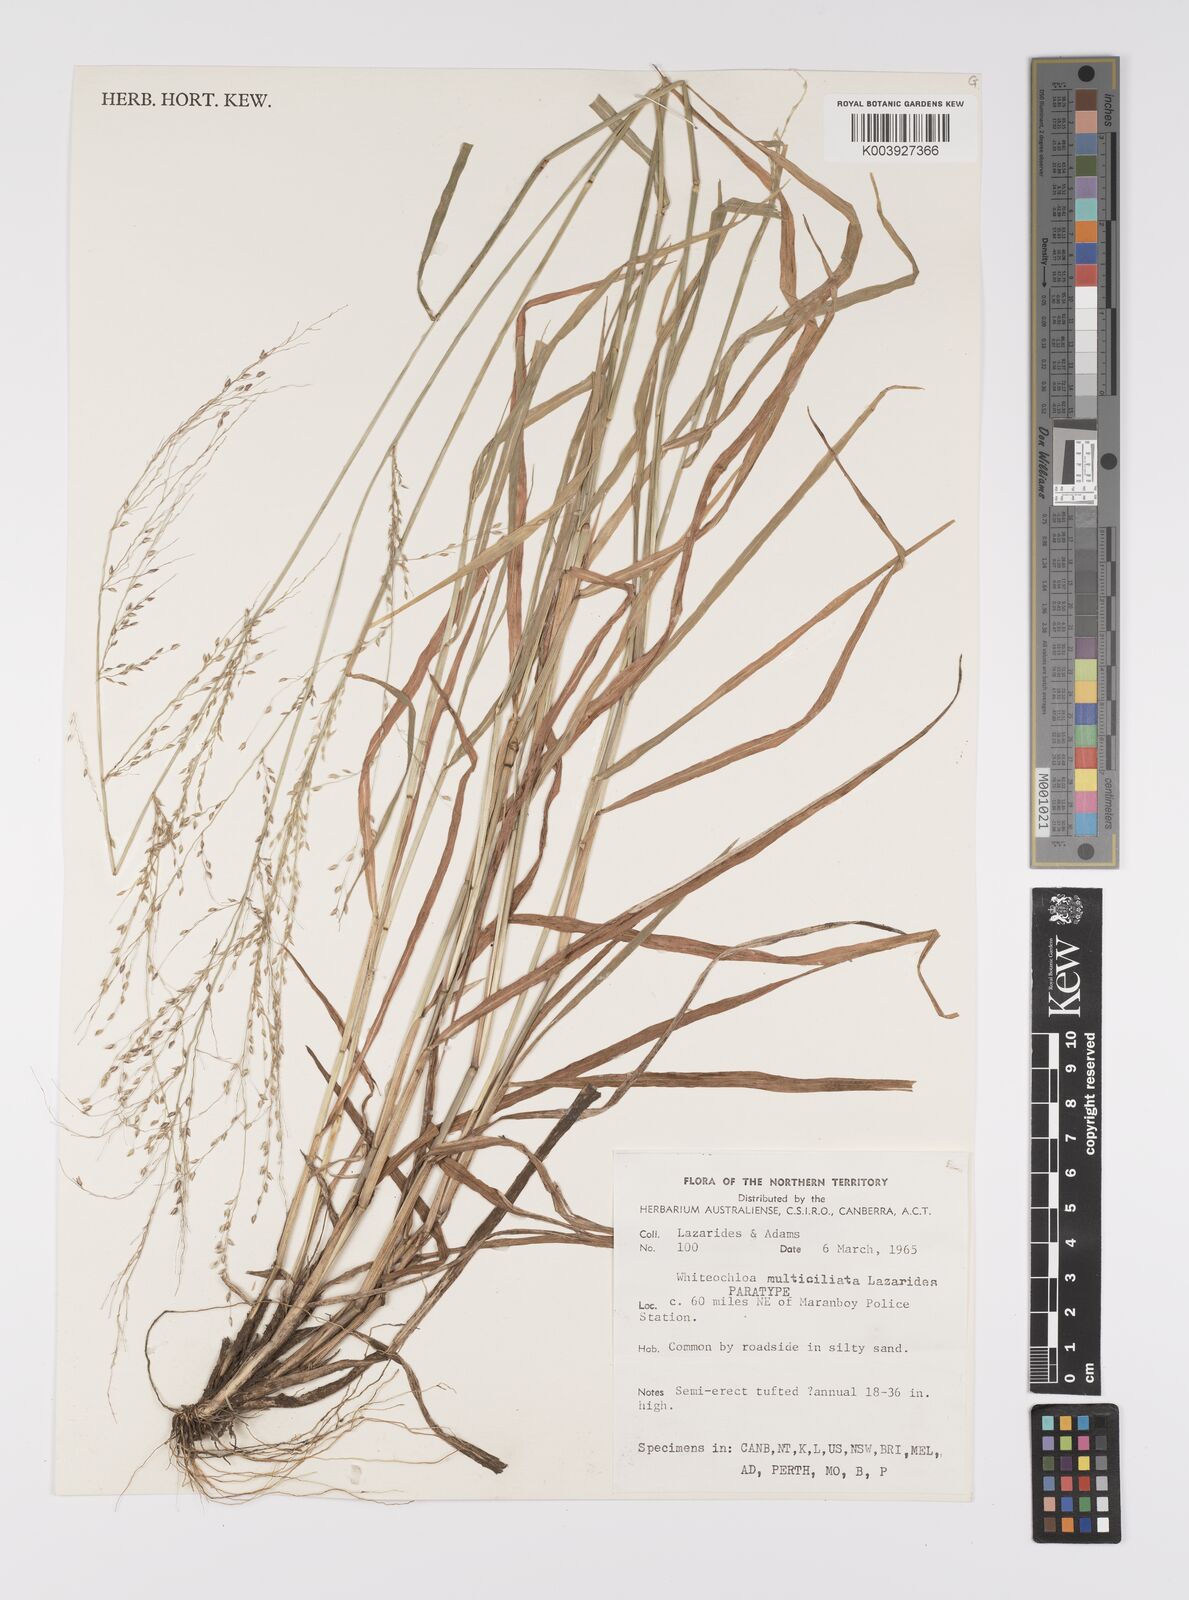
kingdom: Plantae
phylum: Tracheophyta
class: Liliopsida
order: Poales
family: Poaceae
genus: Whiteochloa
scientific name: Whiteochloa multiciliata
